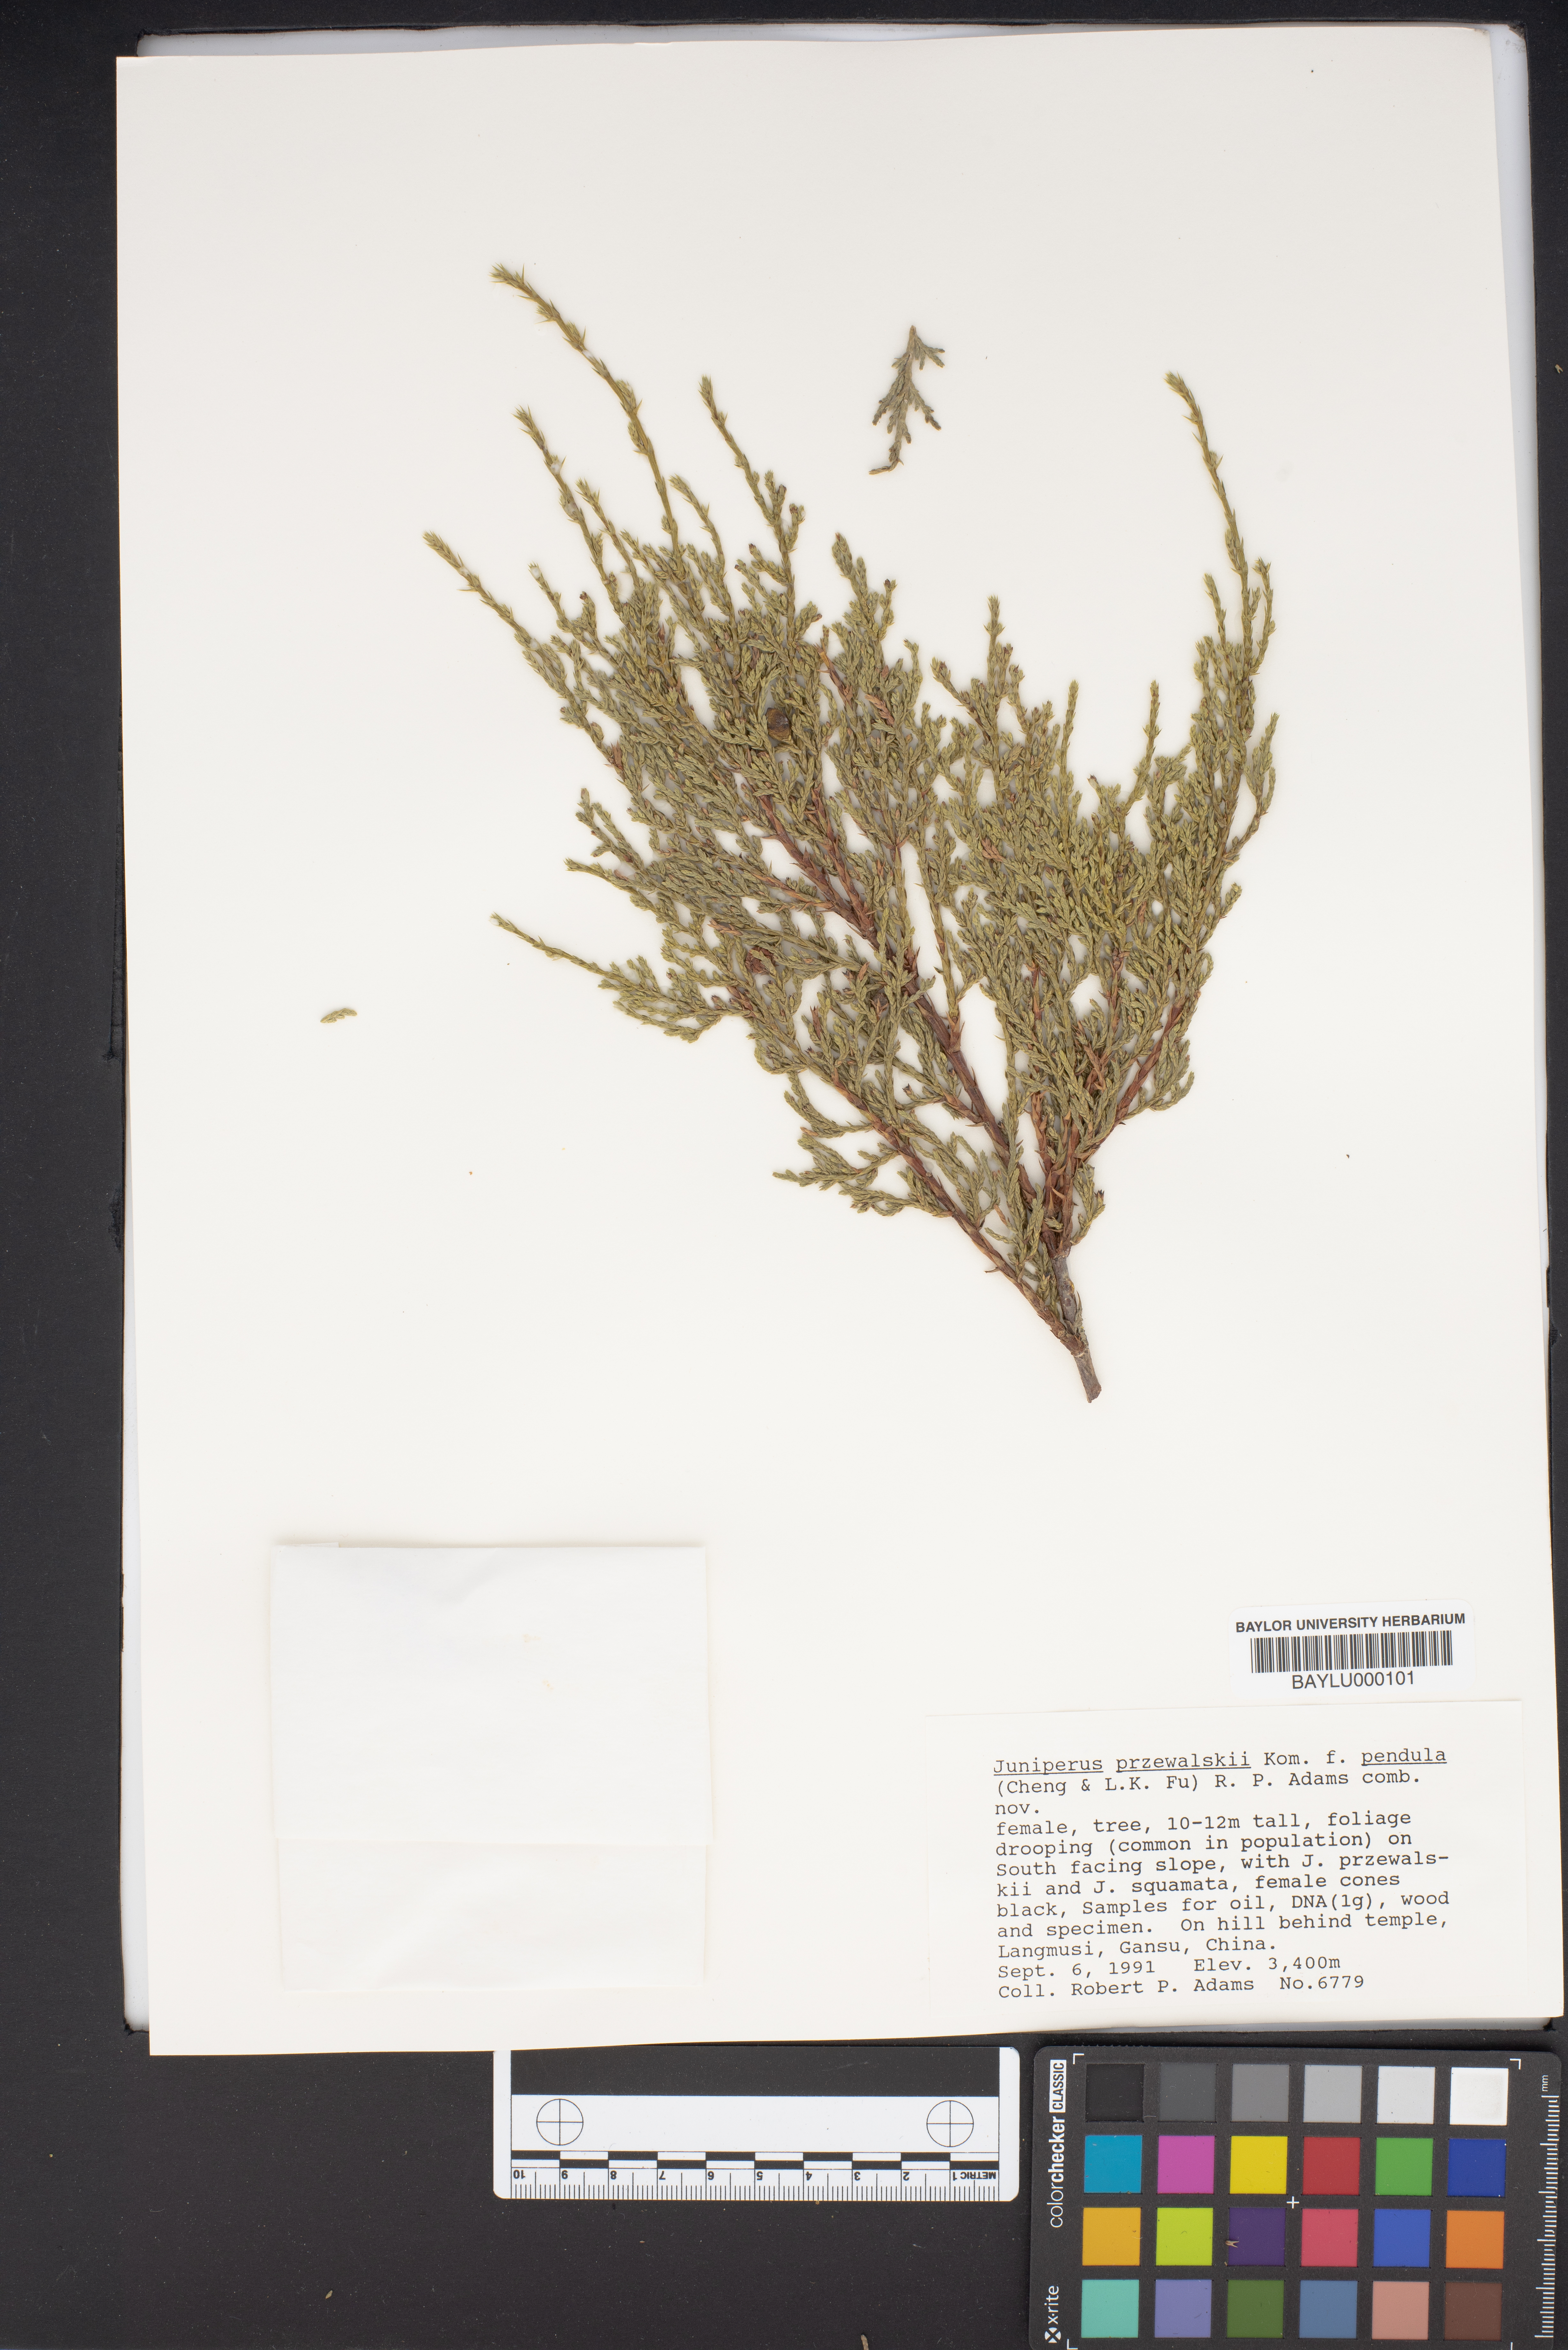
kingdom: Plantae
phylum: Tracheophyta
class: Pinopsida
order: Pinales
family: Cupressaceae
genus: Juniperus
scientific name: Juniperus przewalskii
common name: Przewalsi juniper
